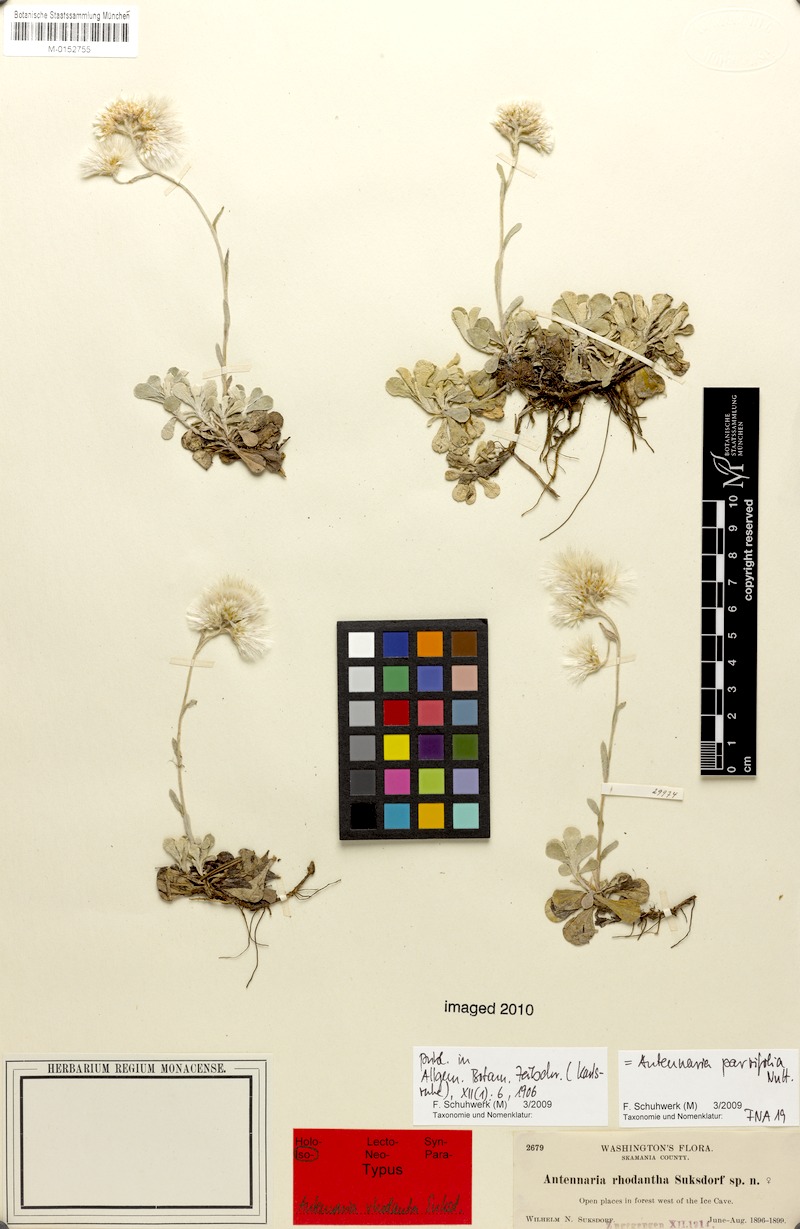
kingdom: Plantae
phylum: Tracheophyta
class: Magnoliopsida
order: Asterales
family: Asteraceae
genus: Antennaria
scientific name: Antennaria parvifolia
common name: Nuttall's pussytoes
